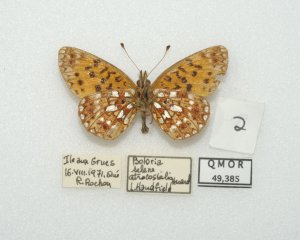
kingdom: Animalia
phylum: Arthropoda
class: Insecta
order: Lepidoptera
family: Nymphalidae
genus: Boloria
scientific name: Boloria selene
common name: Silver-bordered Fritillary
